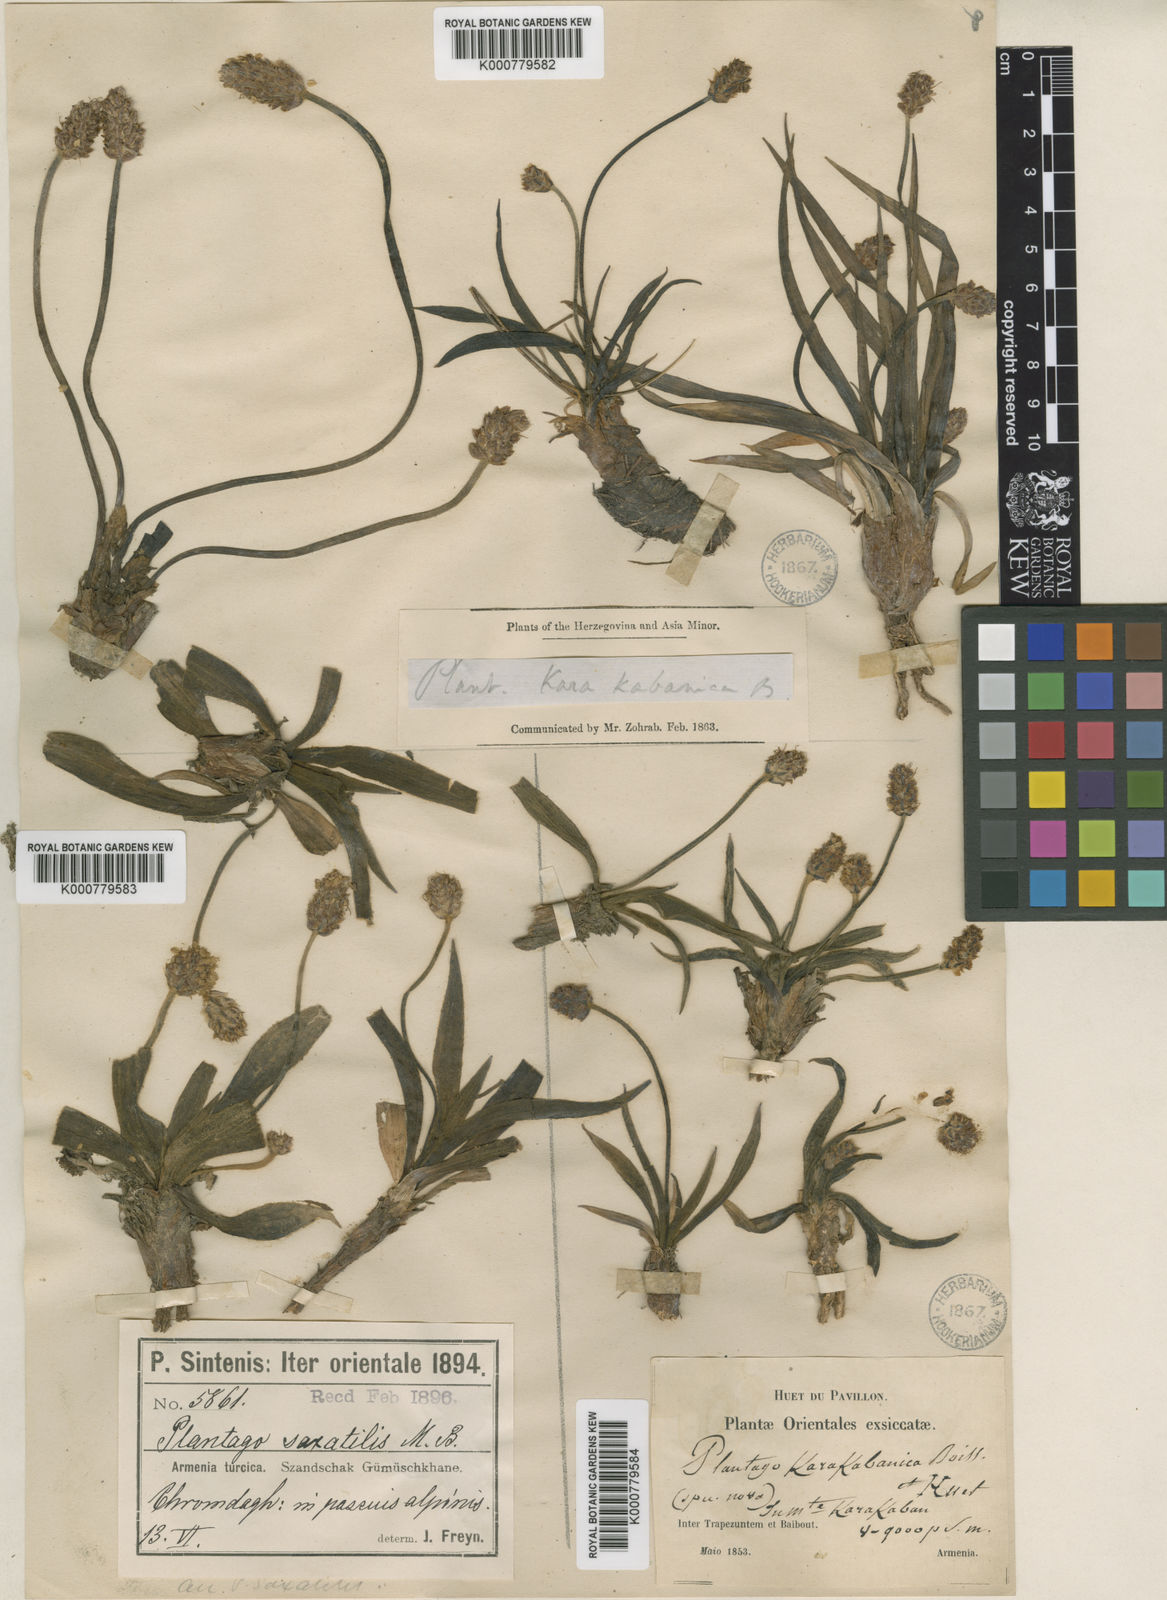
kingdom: Plantae
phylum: Tracheophyta
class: Magnoliopsida
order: Lamiales
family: Plantaginaceae
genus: Plantago
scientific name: Plantago atrata
